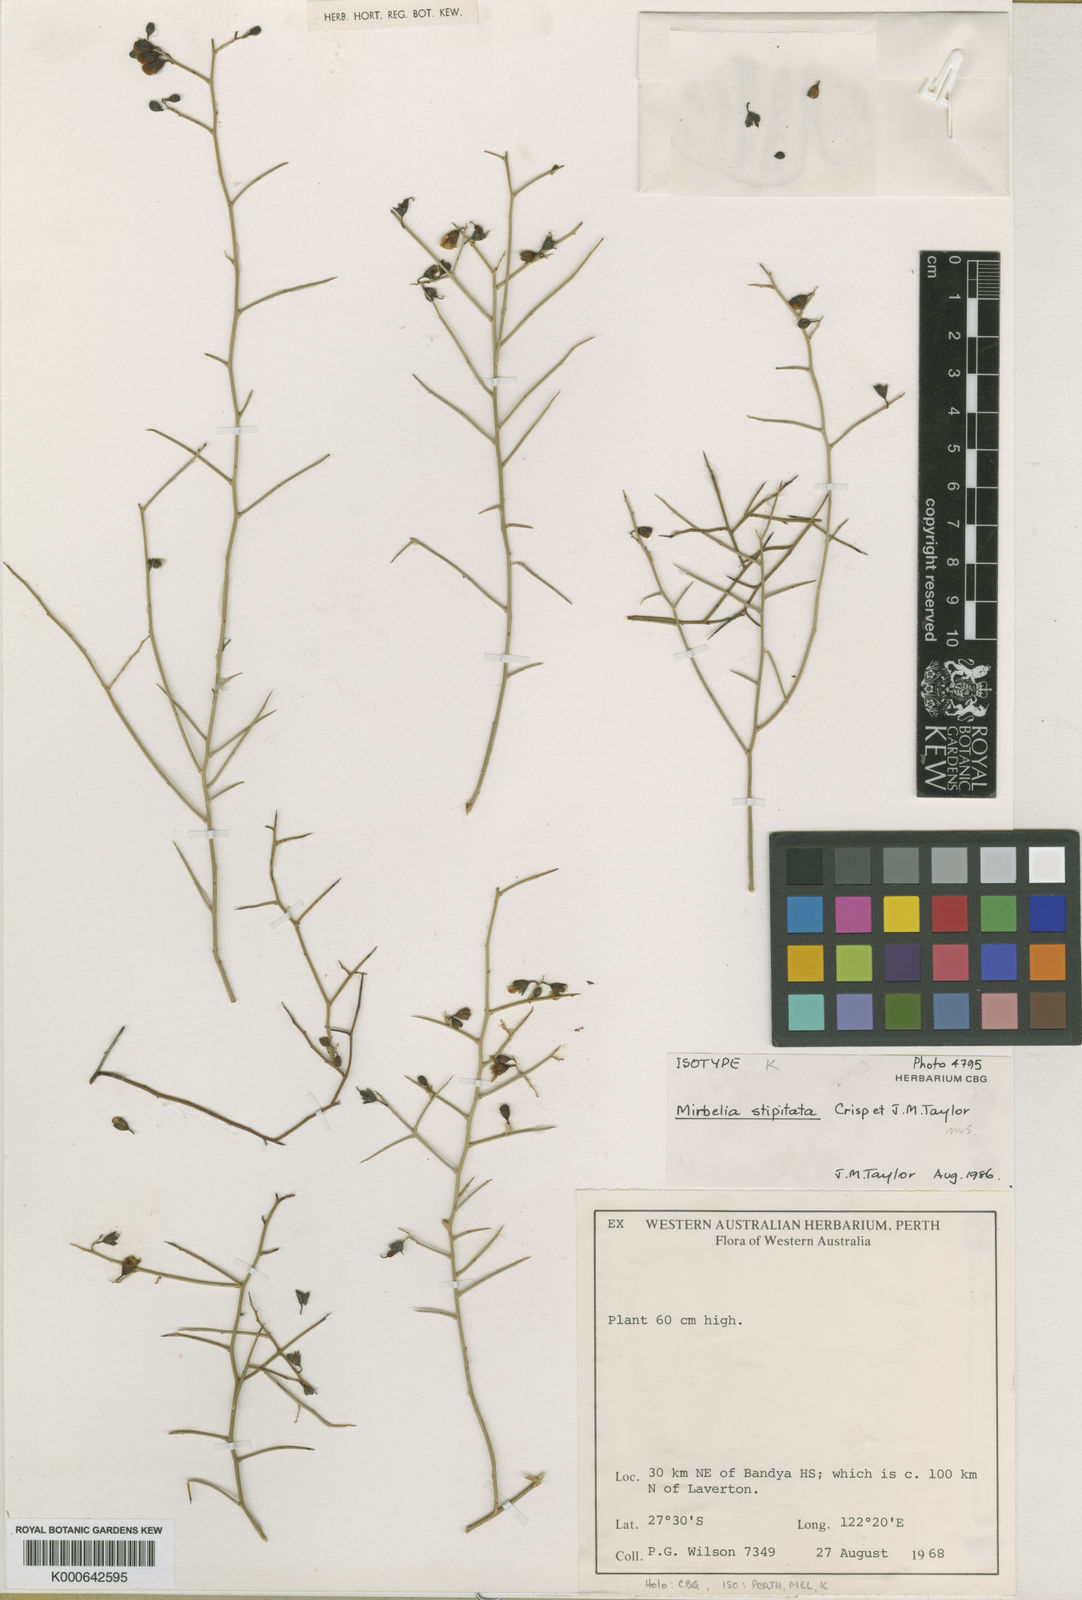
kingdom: Plantae
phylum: Tracheophyta
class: Magnoliopsida
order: Fabales
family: Fabaceae
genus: Mirbelia
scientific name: Mirbelia stipitata
